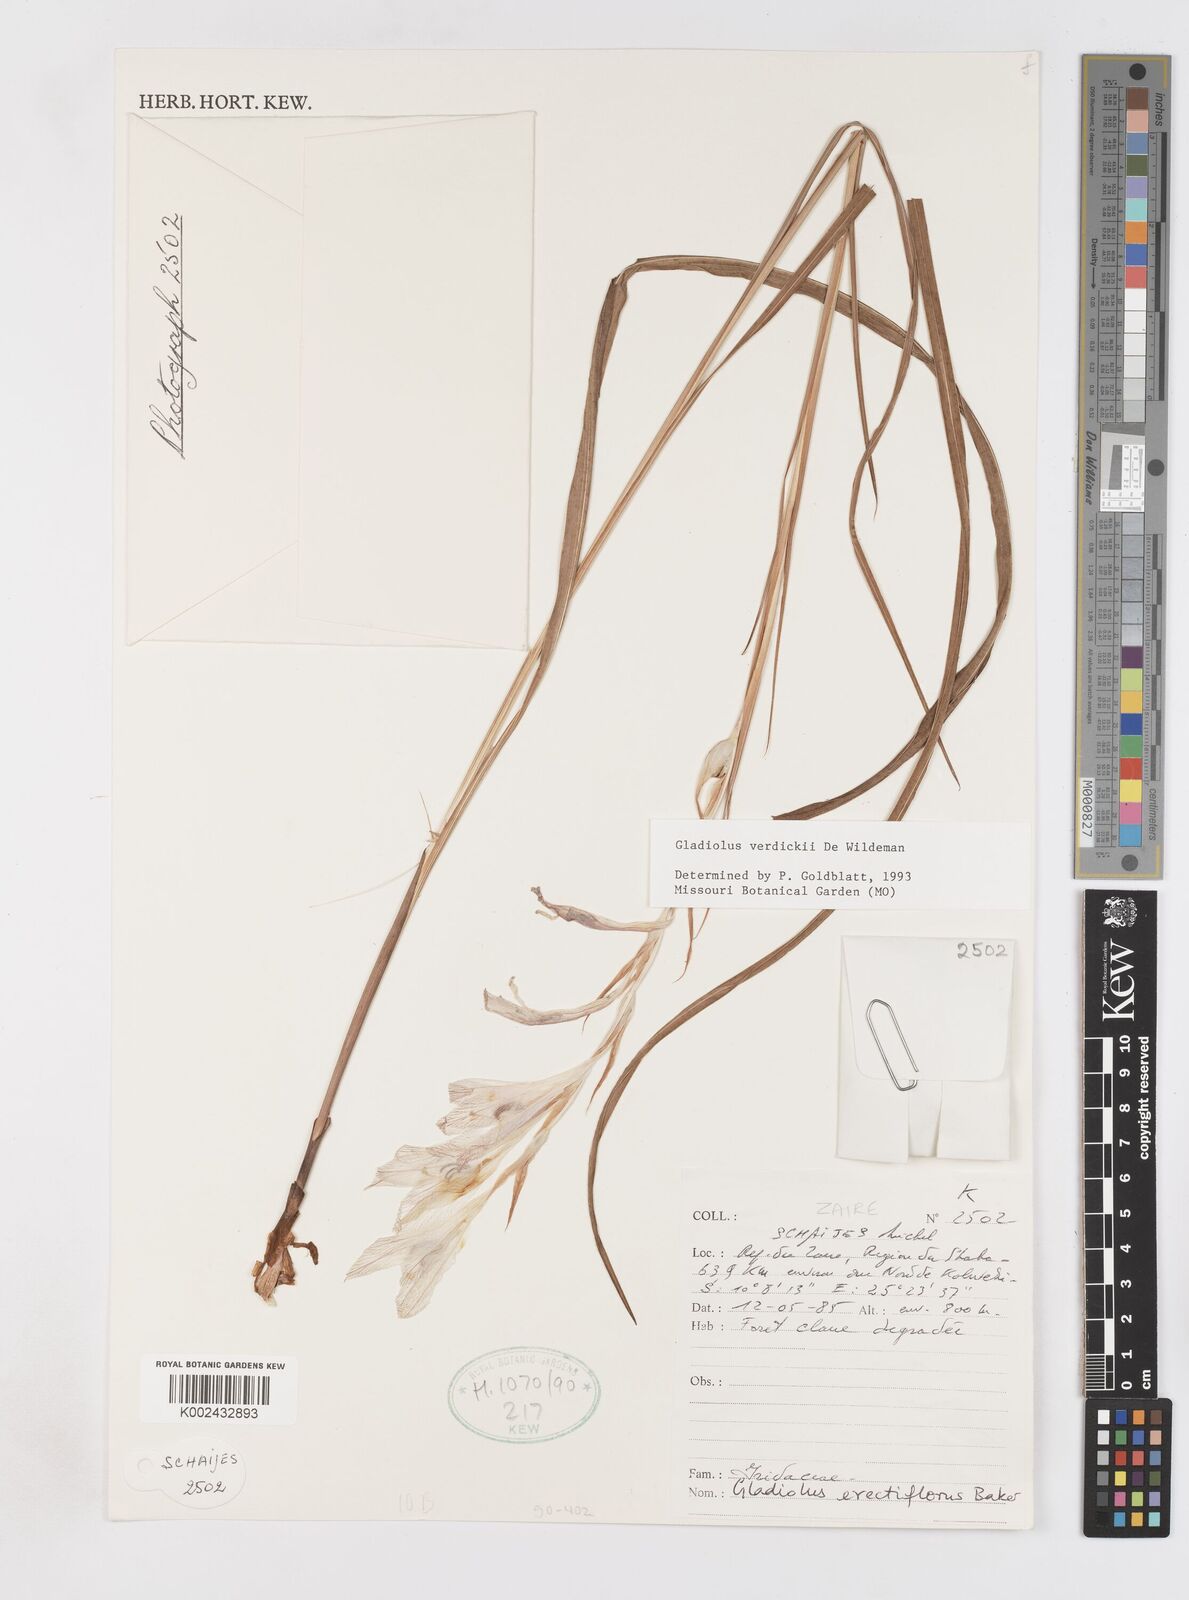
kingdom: Plantae
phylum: Tracheophyta
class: Liliopsida
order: Asparagales
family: Iridaceae
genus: Gladiolus
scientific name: Gladiolus verdickii
